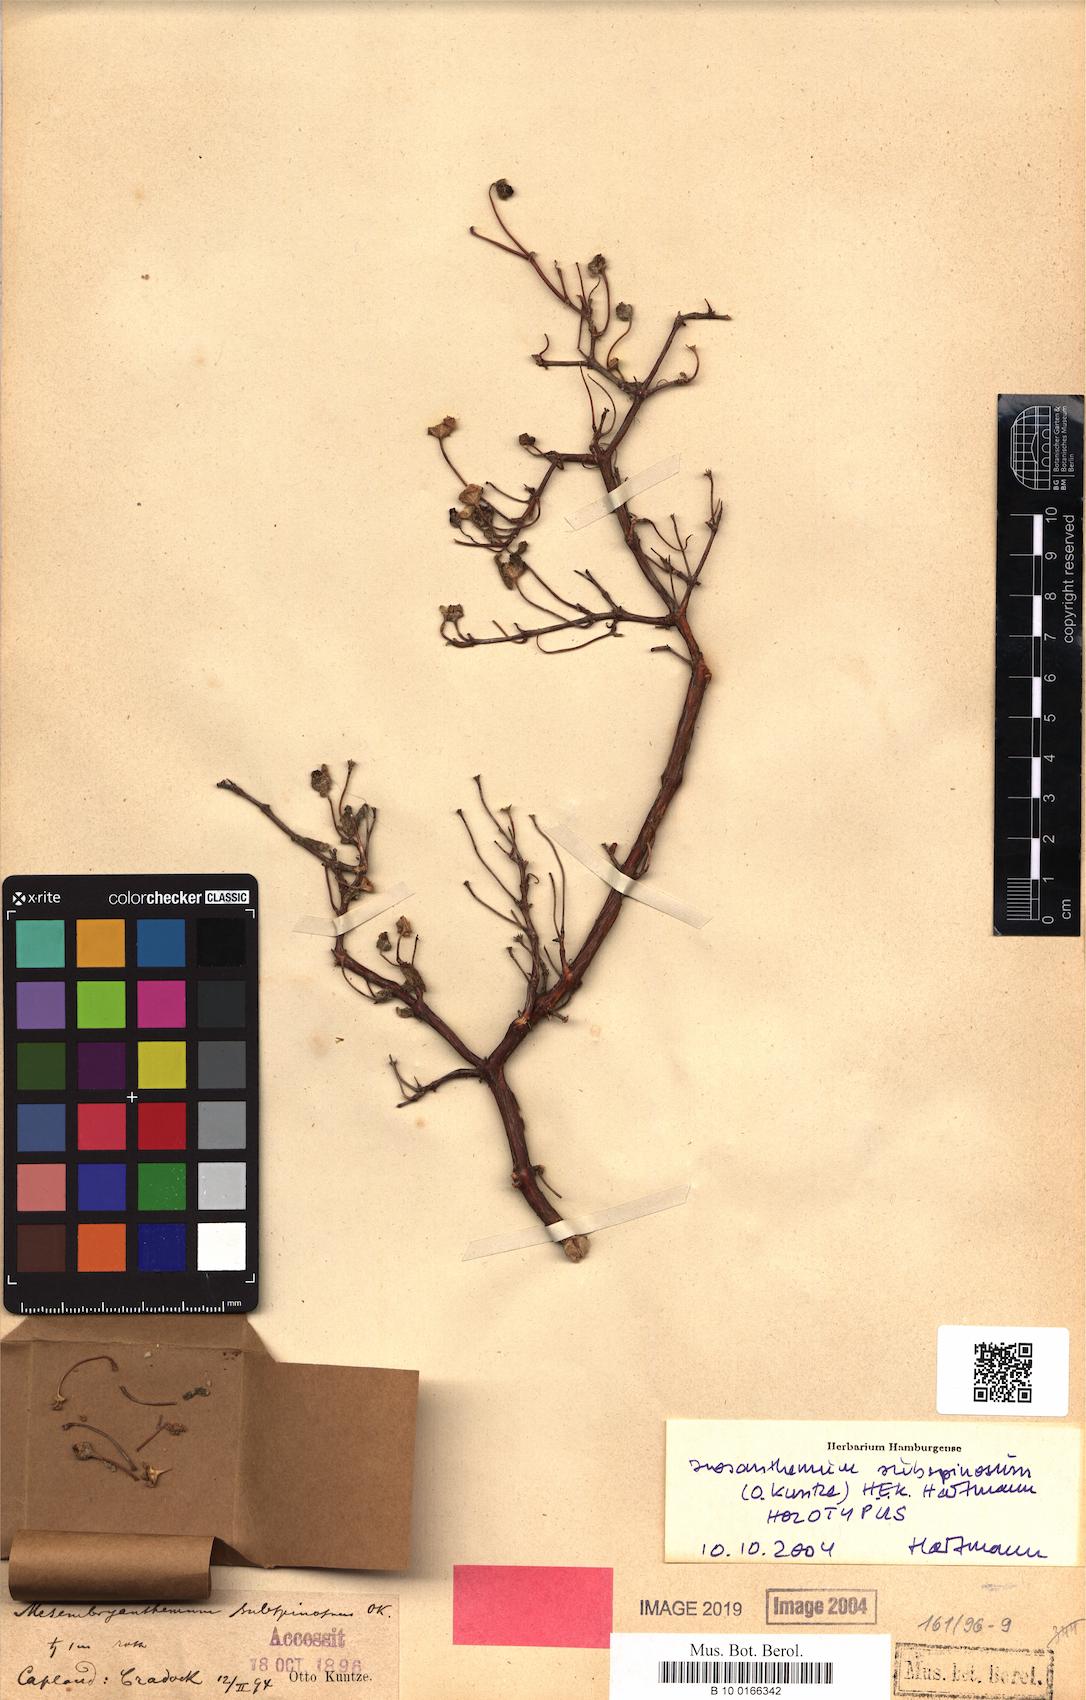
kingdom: Plantae
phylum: Tracheophyta
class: Magnoliopsida
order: Caryophyllales
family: Aizoaceae
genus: Drosanthemum
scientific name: Drosanthemum subspinosum
